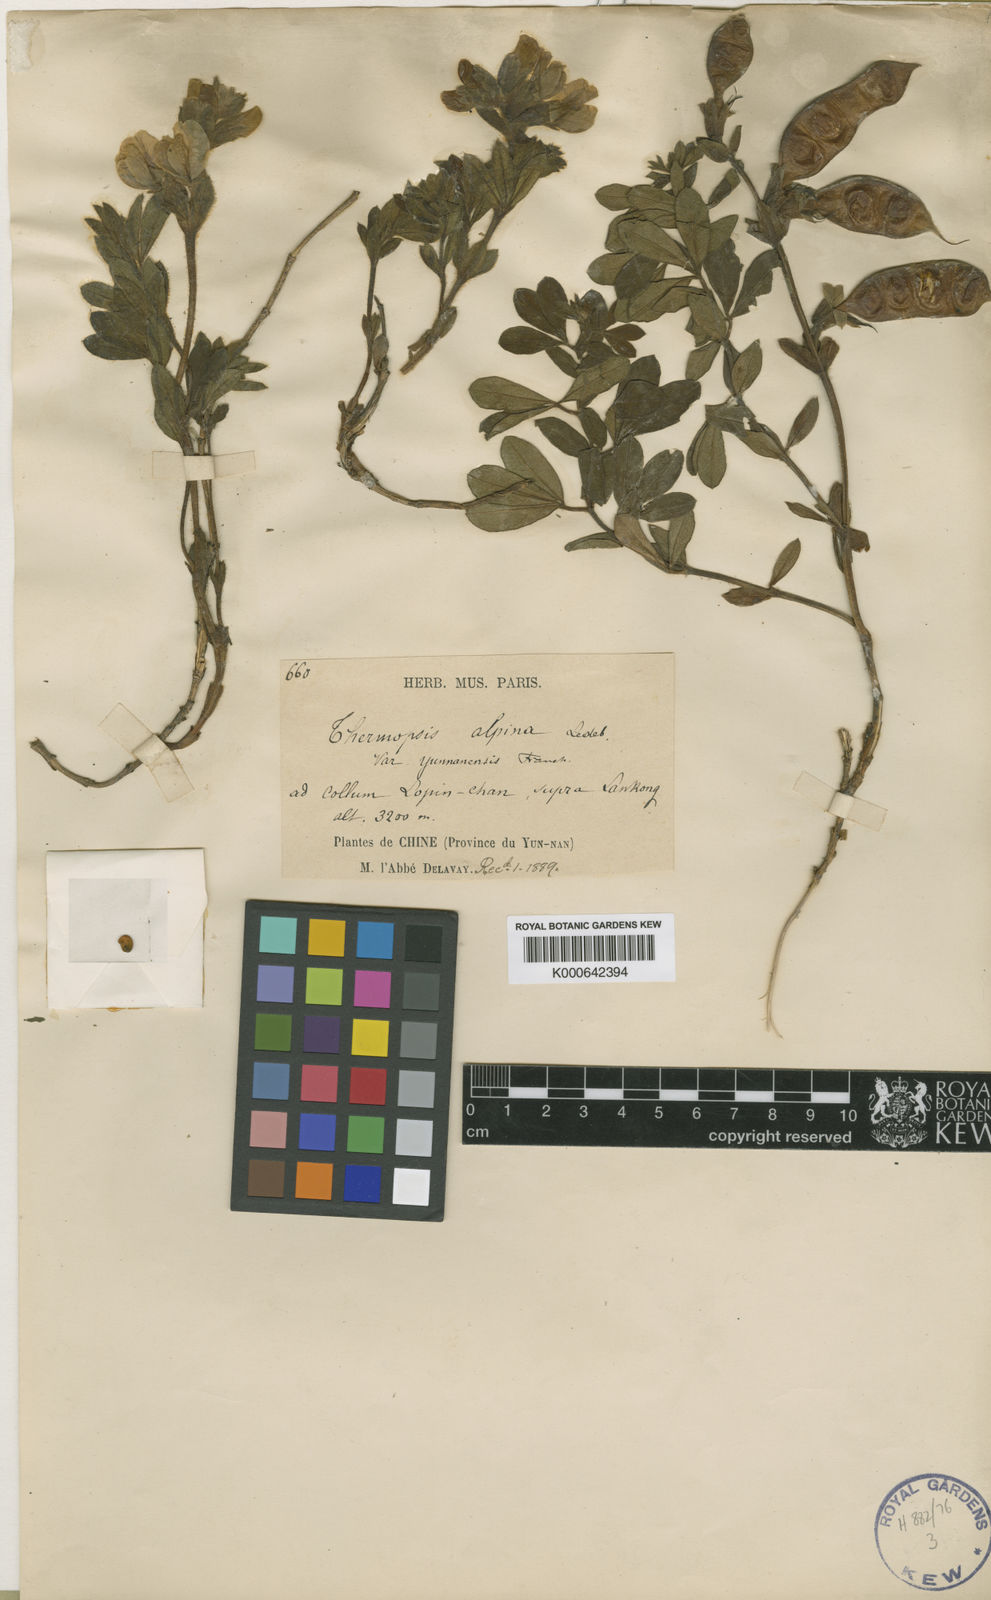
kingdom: Plantae
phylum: Tracheophyta
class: Magnoliopsida
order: Fabales
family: Fabaceae
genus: Thermopsis
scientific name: Thermopsis alpina
